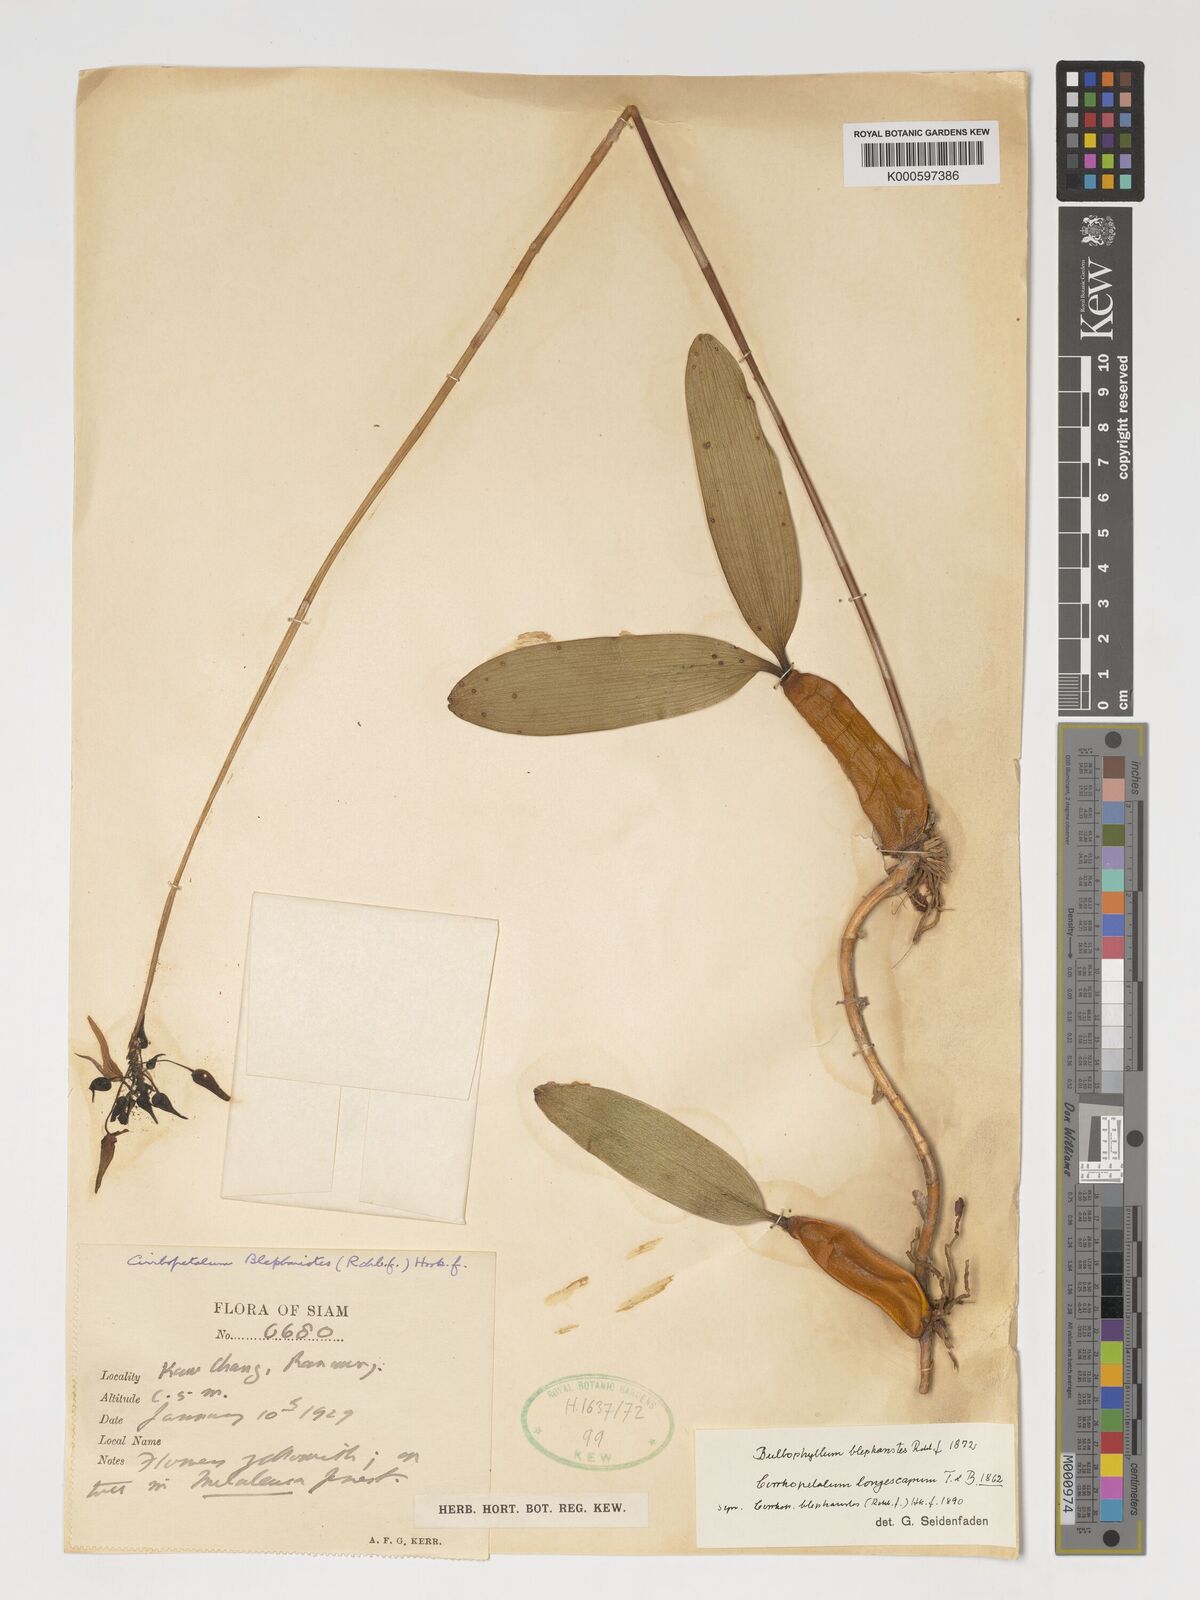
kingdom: Plantae
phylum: Tracheophyta
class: Liliopsida
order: Asparagales
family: Orchidaceae
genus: Bulbophyllum
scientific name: Bulbophyllum blepharistes
